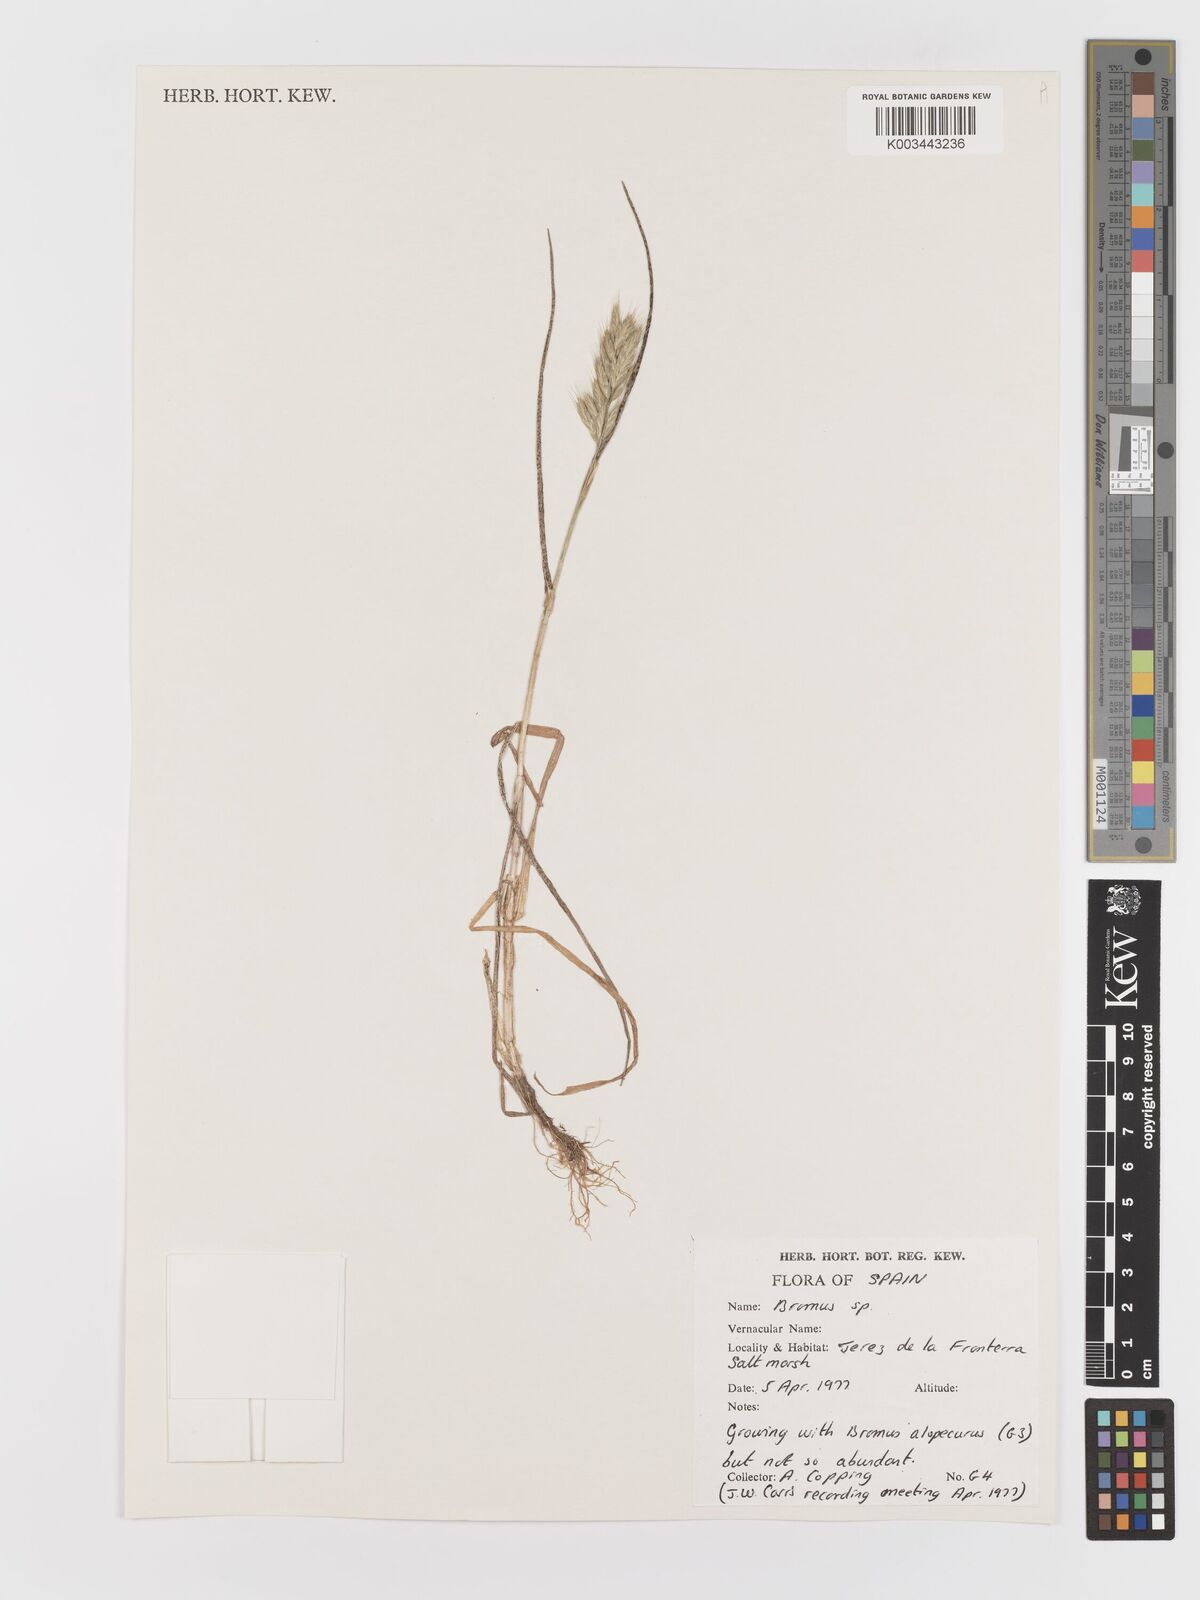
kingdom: Plantae
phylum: Tracheophyta
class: Liliopsida
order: Poales
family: Poaceae
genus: Bromus
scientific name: Bromus
